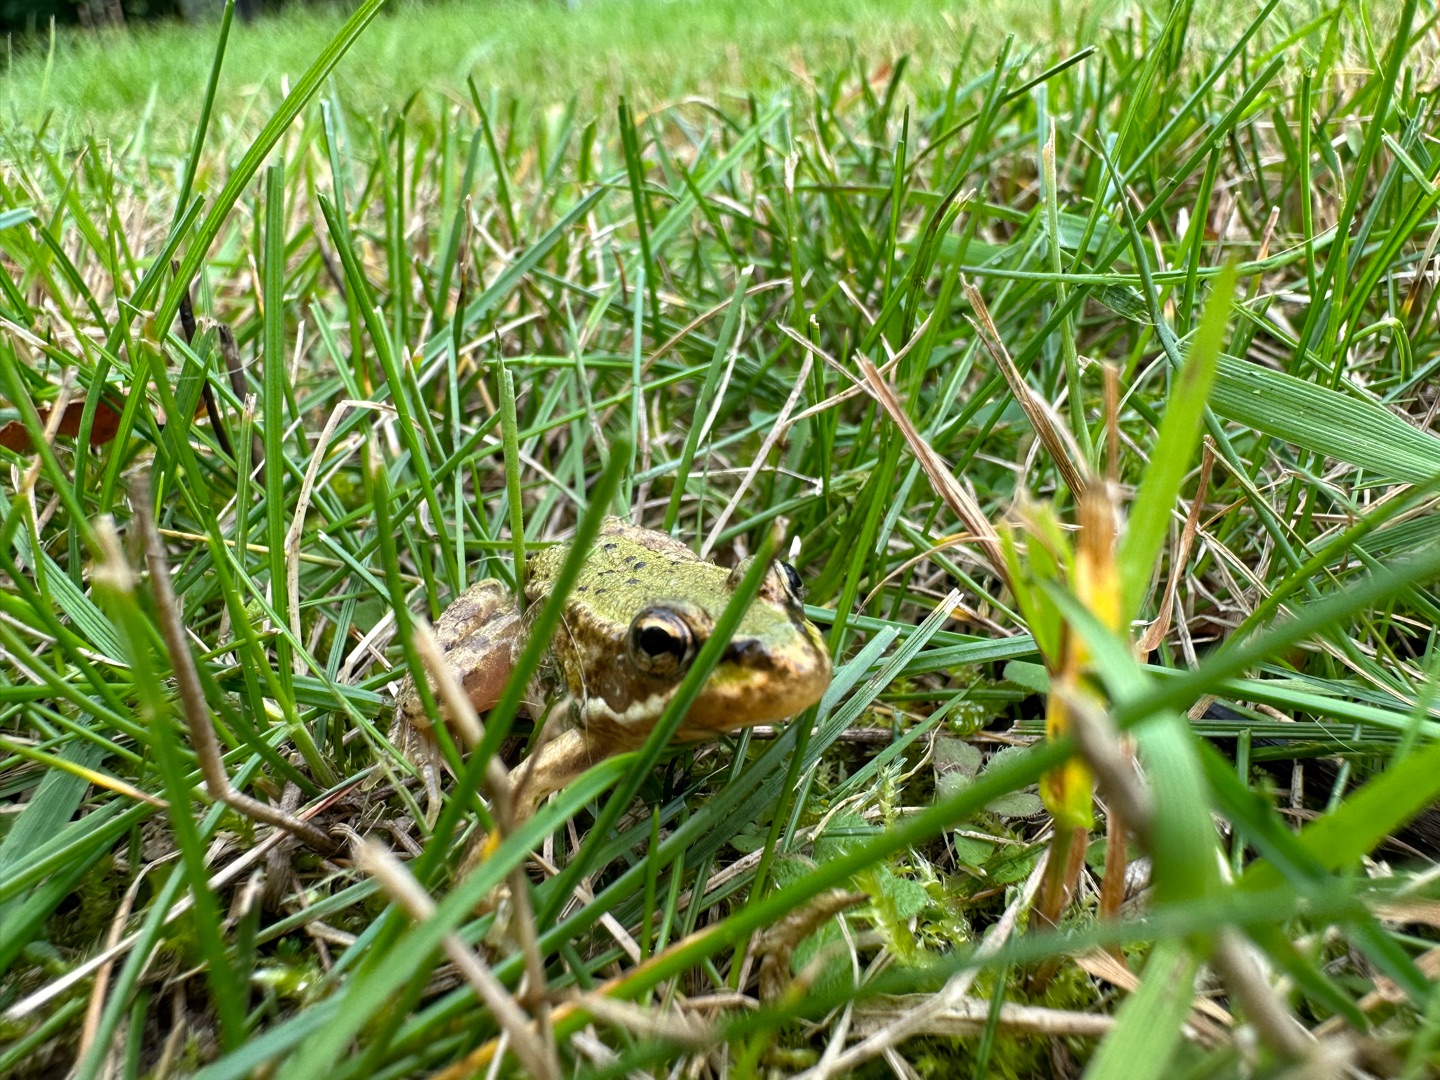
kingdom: Animalia
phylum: Chordata
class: Amphibia
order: Anura
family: Ranidae
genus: Pelophylax
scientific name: Pelophylax lessonae
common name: Grøn frø
